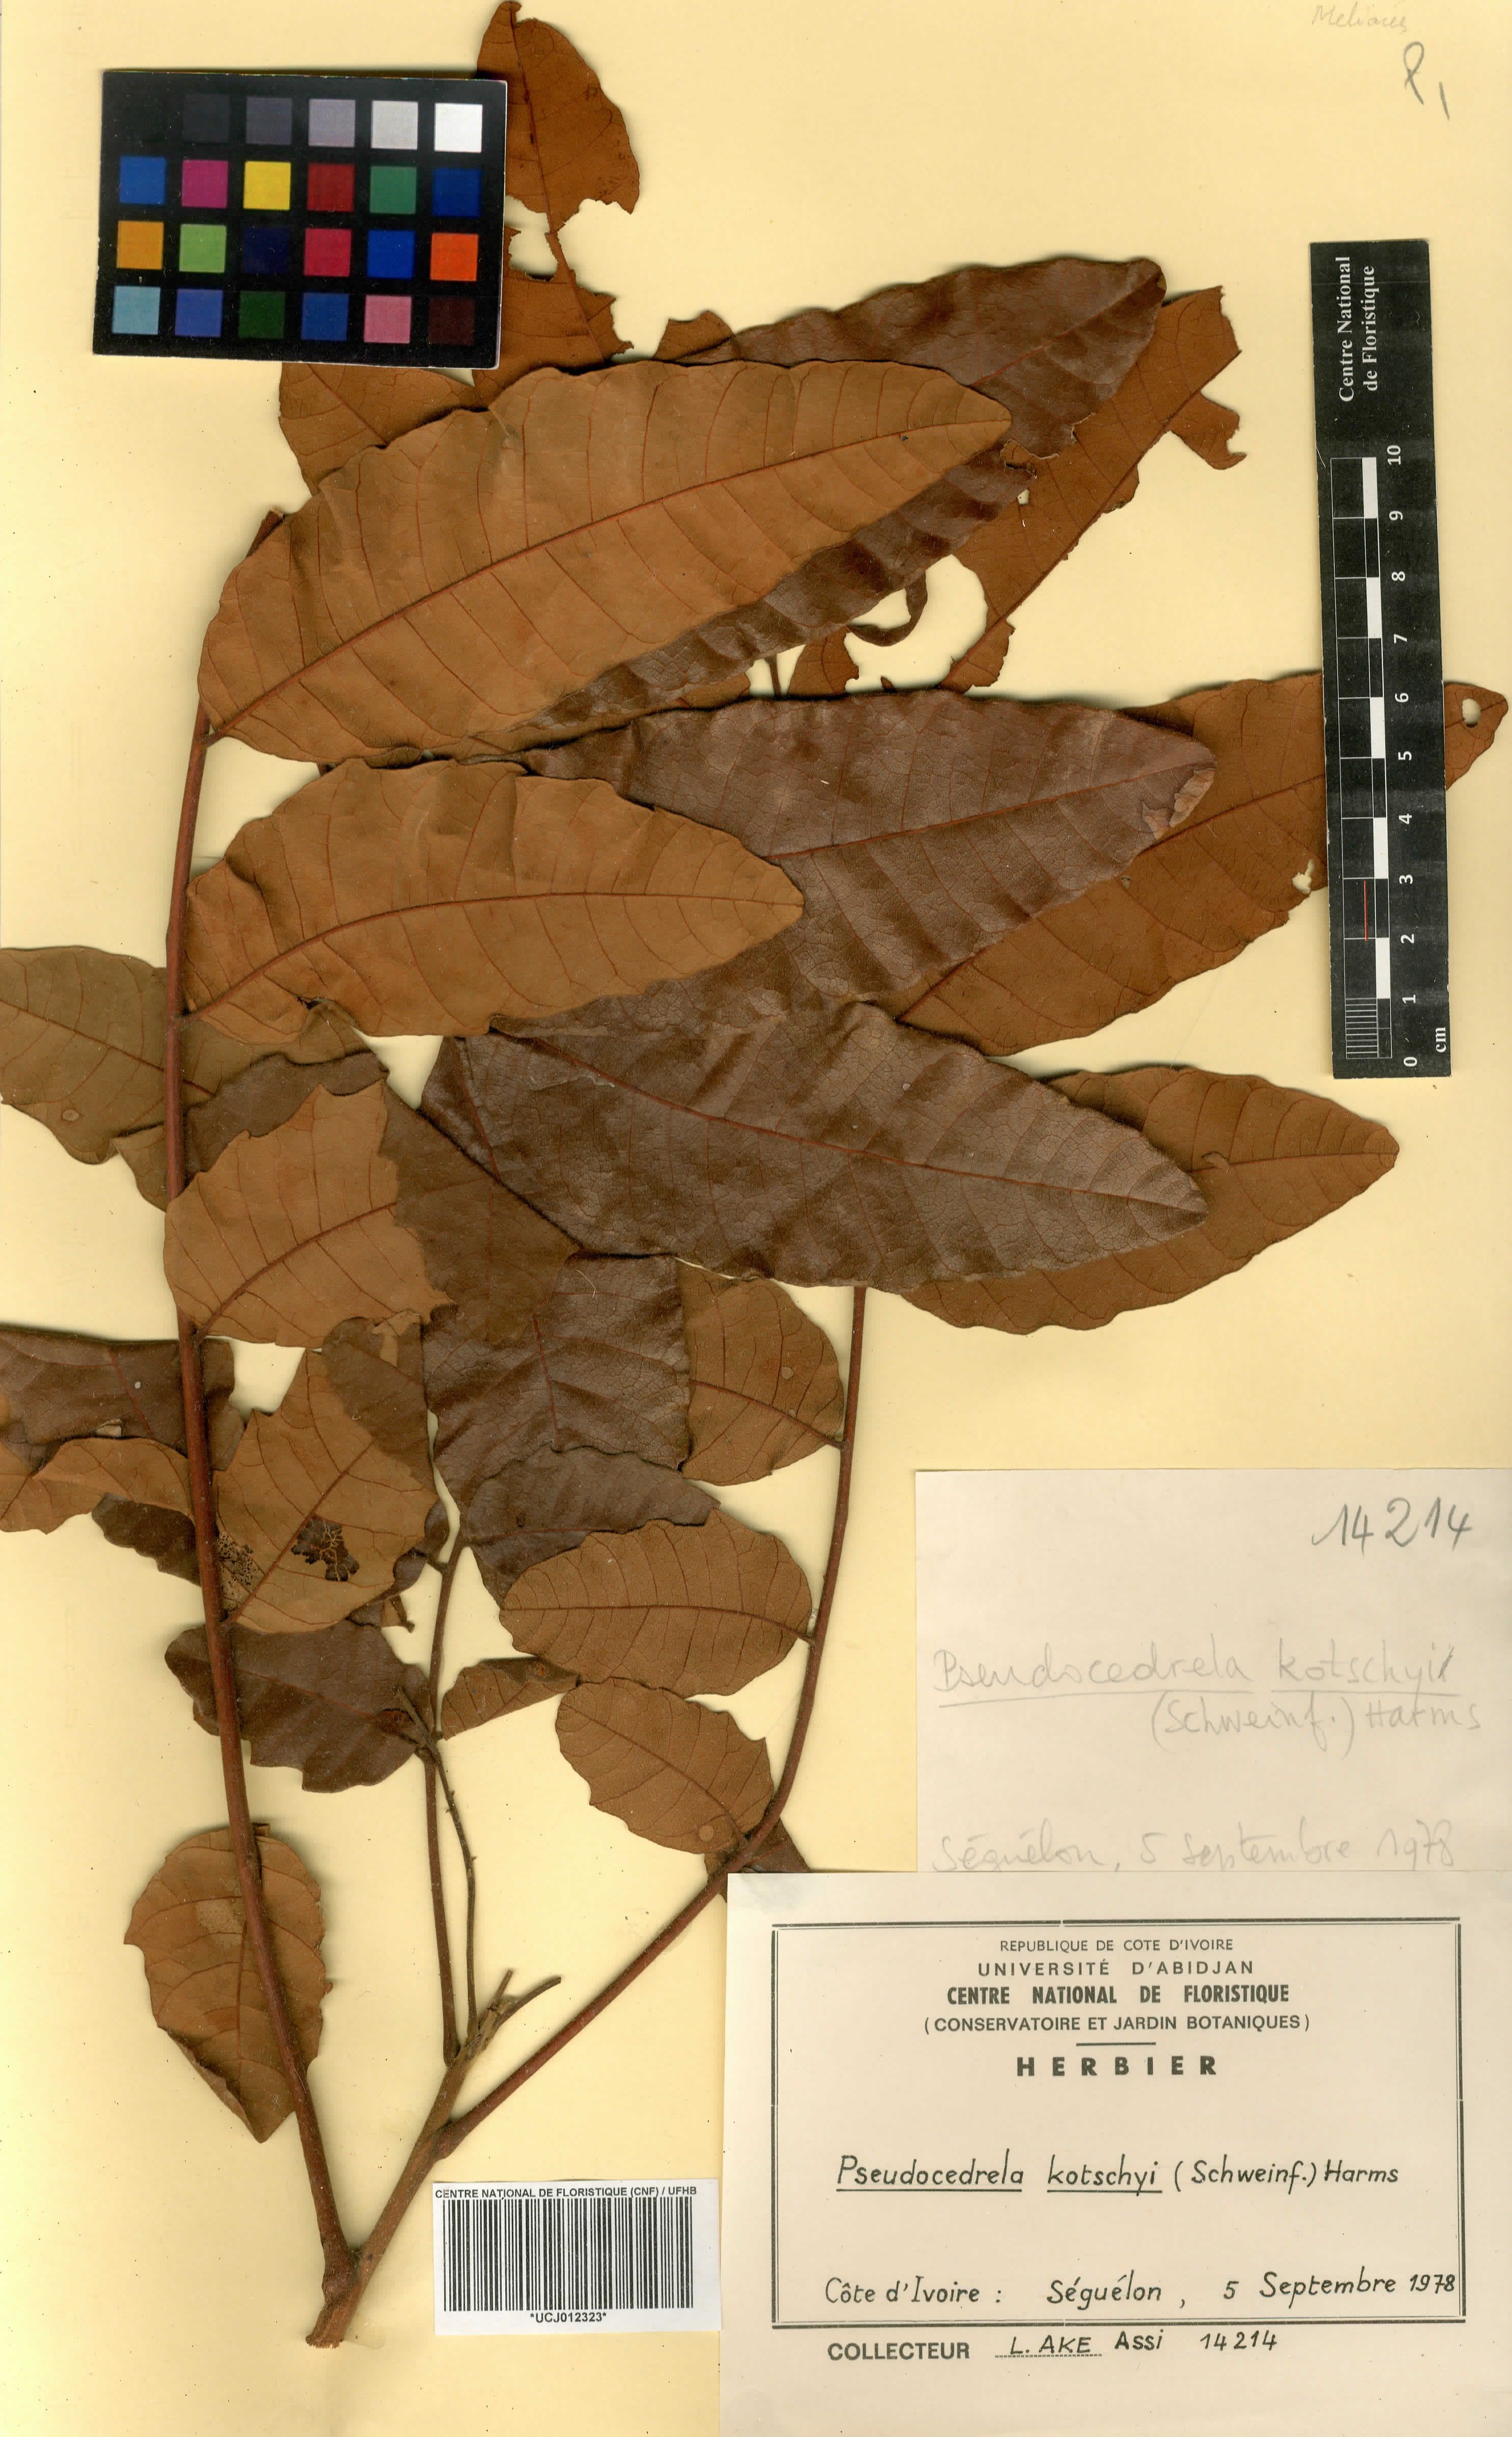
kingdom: Plantae
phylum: Tracheophyta
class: Magnoliopsida
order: Sapindales
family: Meliaceae
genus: Pseudocedrela
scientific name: Pseudocedrela kotschyi
